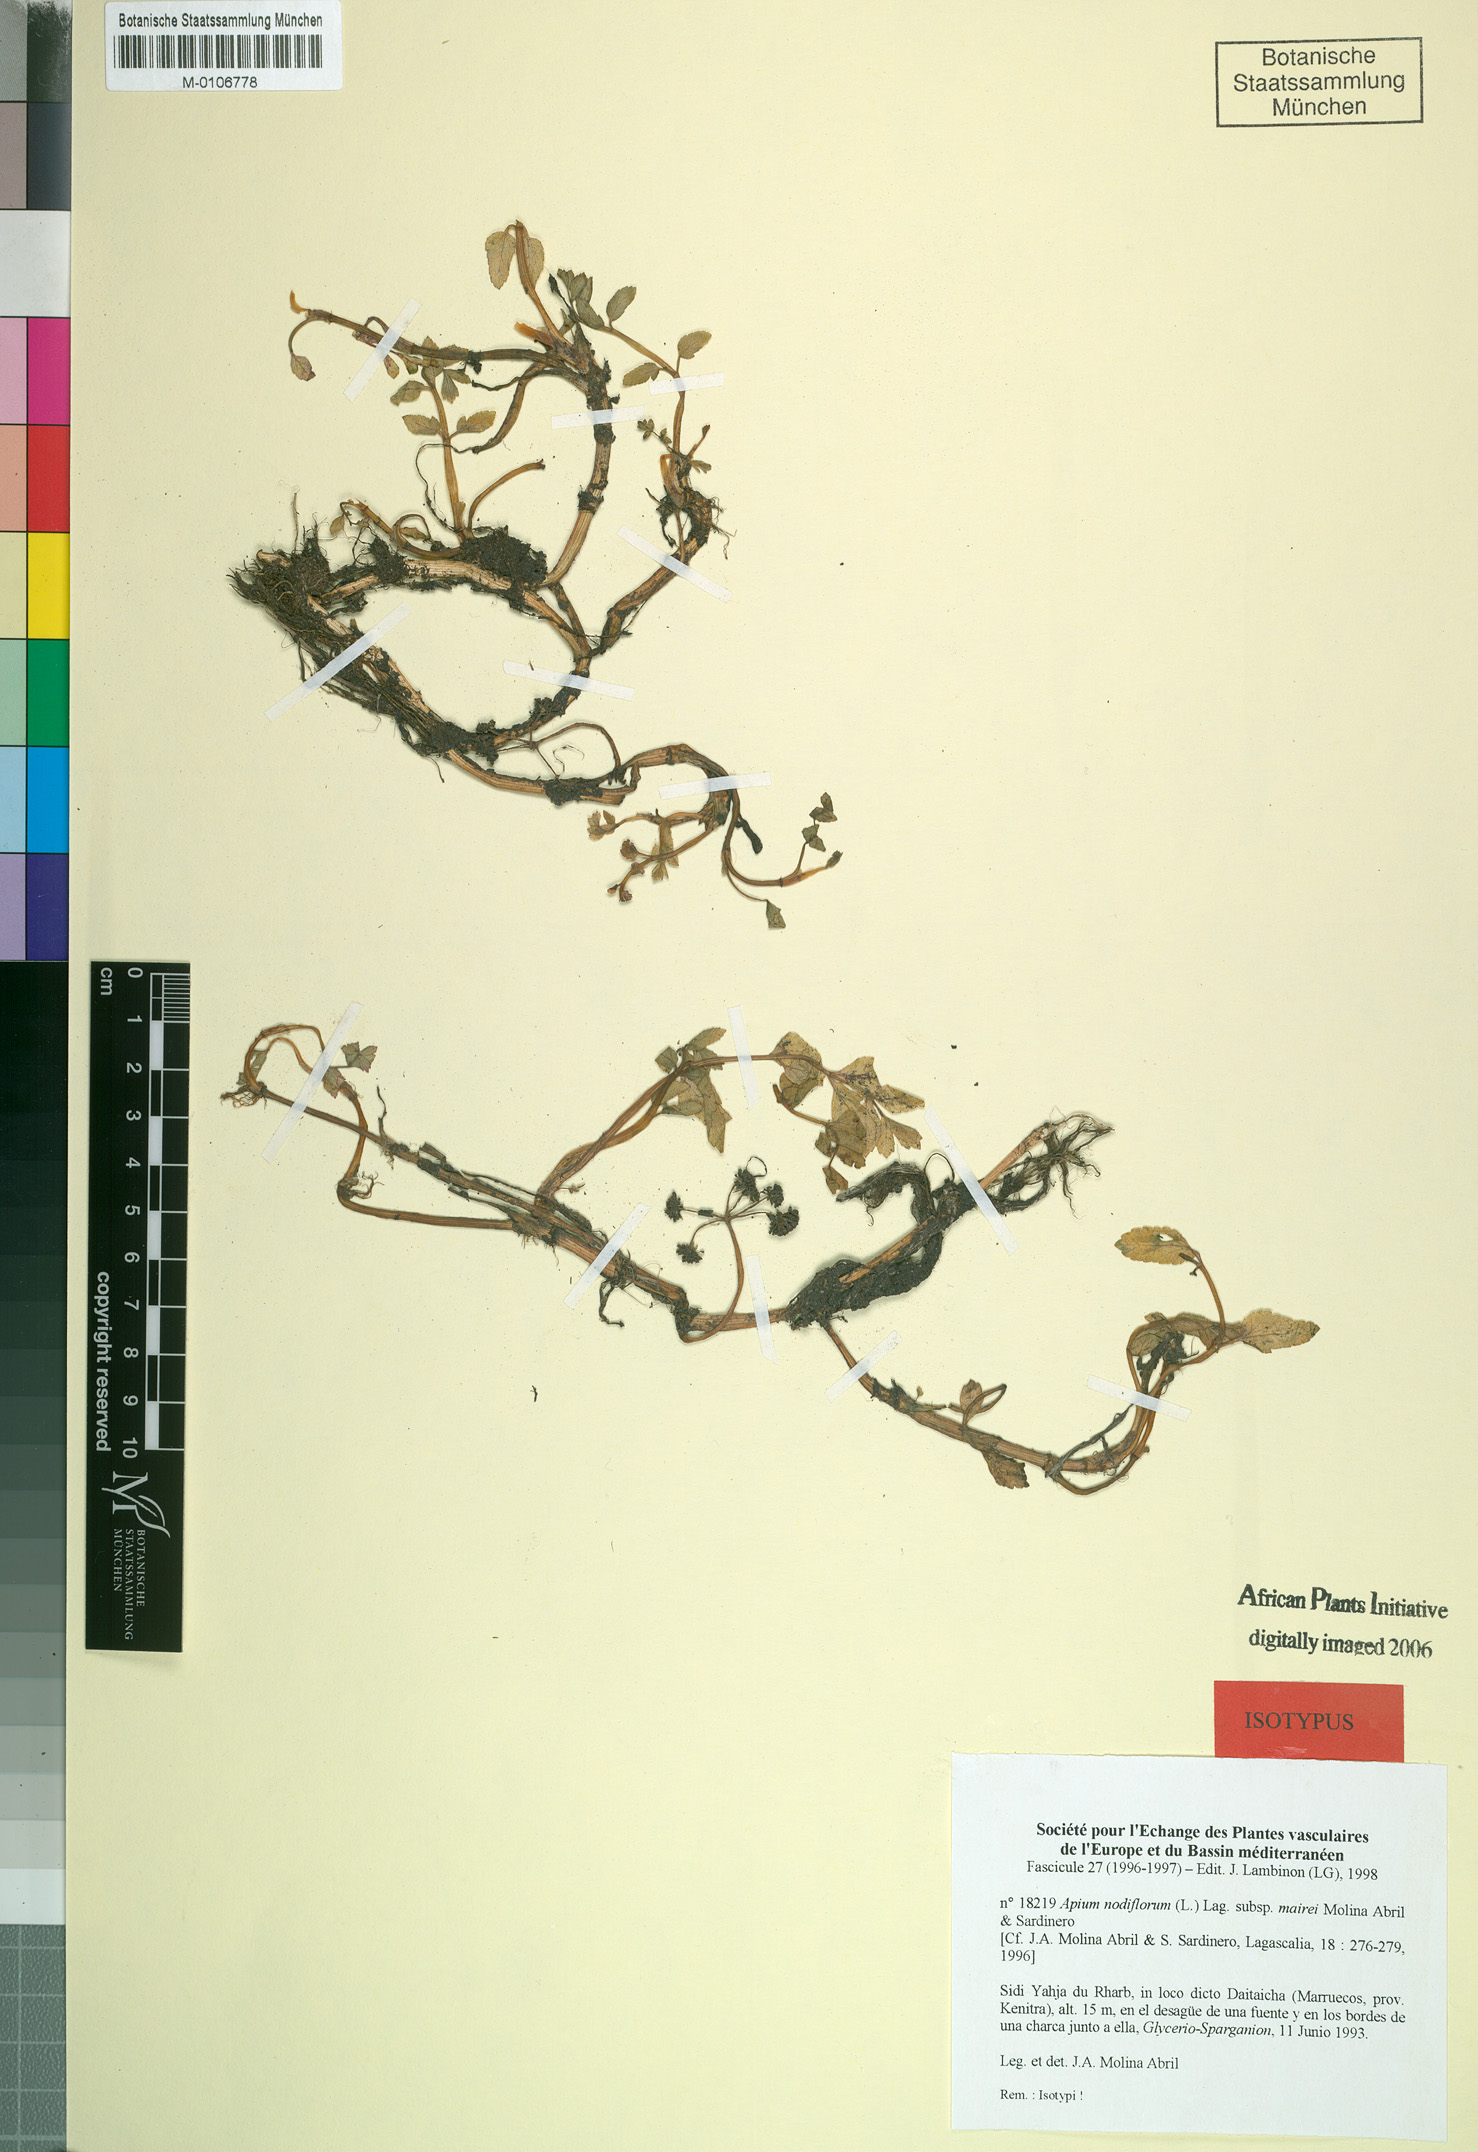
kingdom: Plantae
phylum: Tracheophyta
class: Magnoliopsida
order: Apiales
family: Apiaceae
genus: Helosciadium
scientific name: Helosciadium nodiflorum
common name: Fool's-watercress
